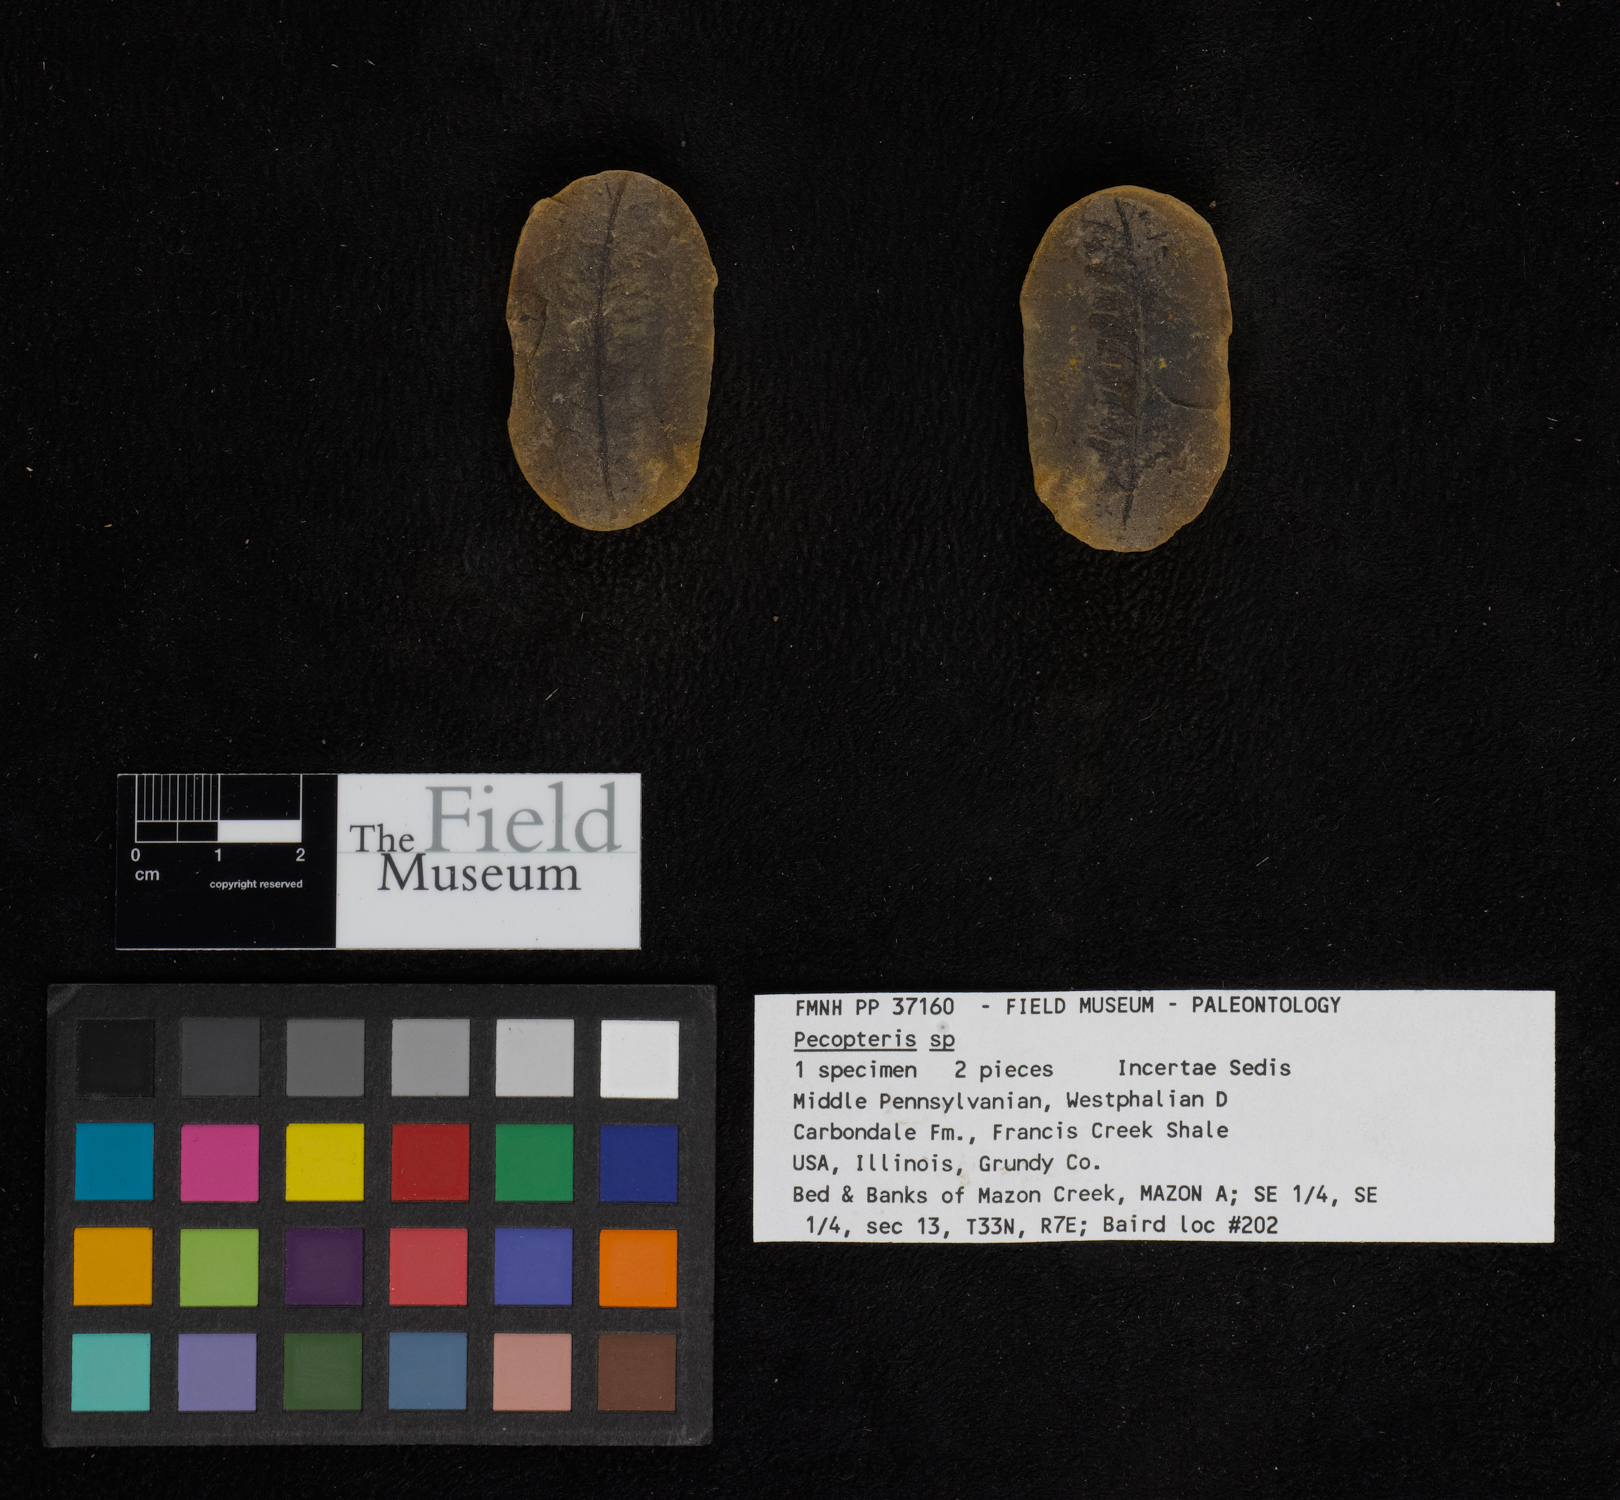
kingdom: Plantae
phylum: Tracheophyta
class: Polypodiopsida
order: Marattiales
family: Asterothecaceae
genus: Pecopteris
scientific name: Pecopteris
